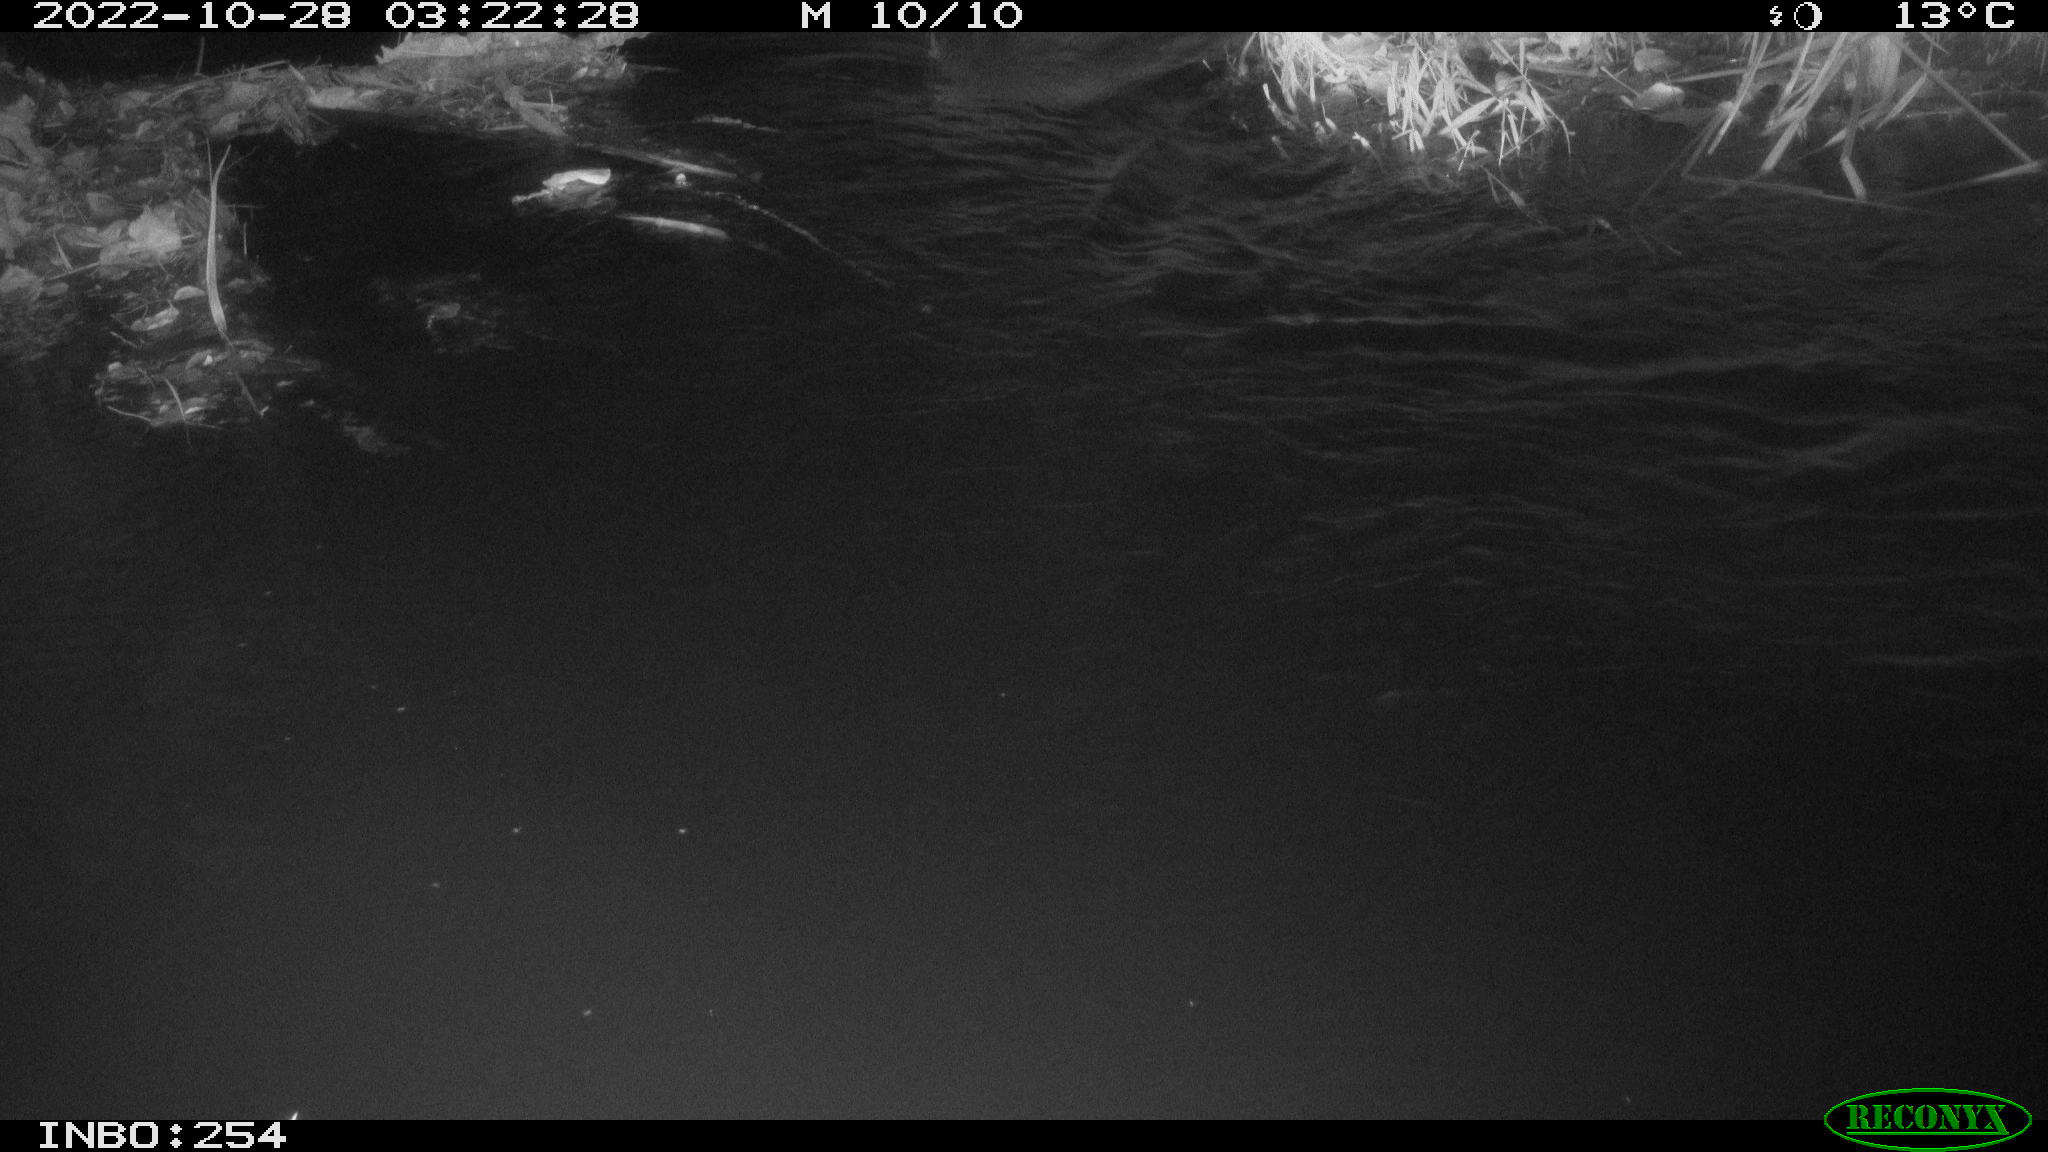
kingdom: Animalia
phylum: Chordata
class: Aves
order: Anseriformes
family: Anatidae
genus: Anas
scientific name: Anas
